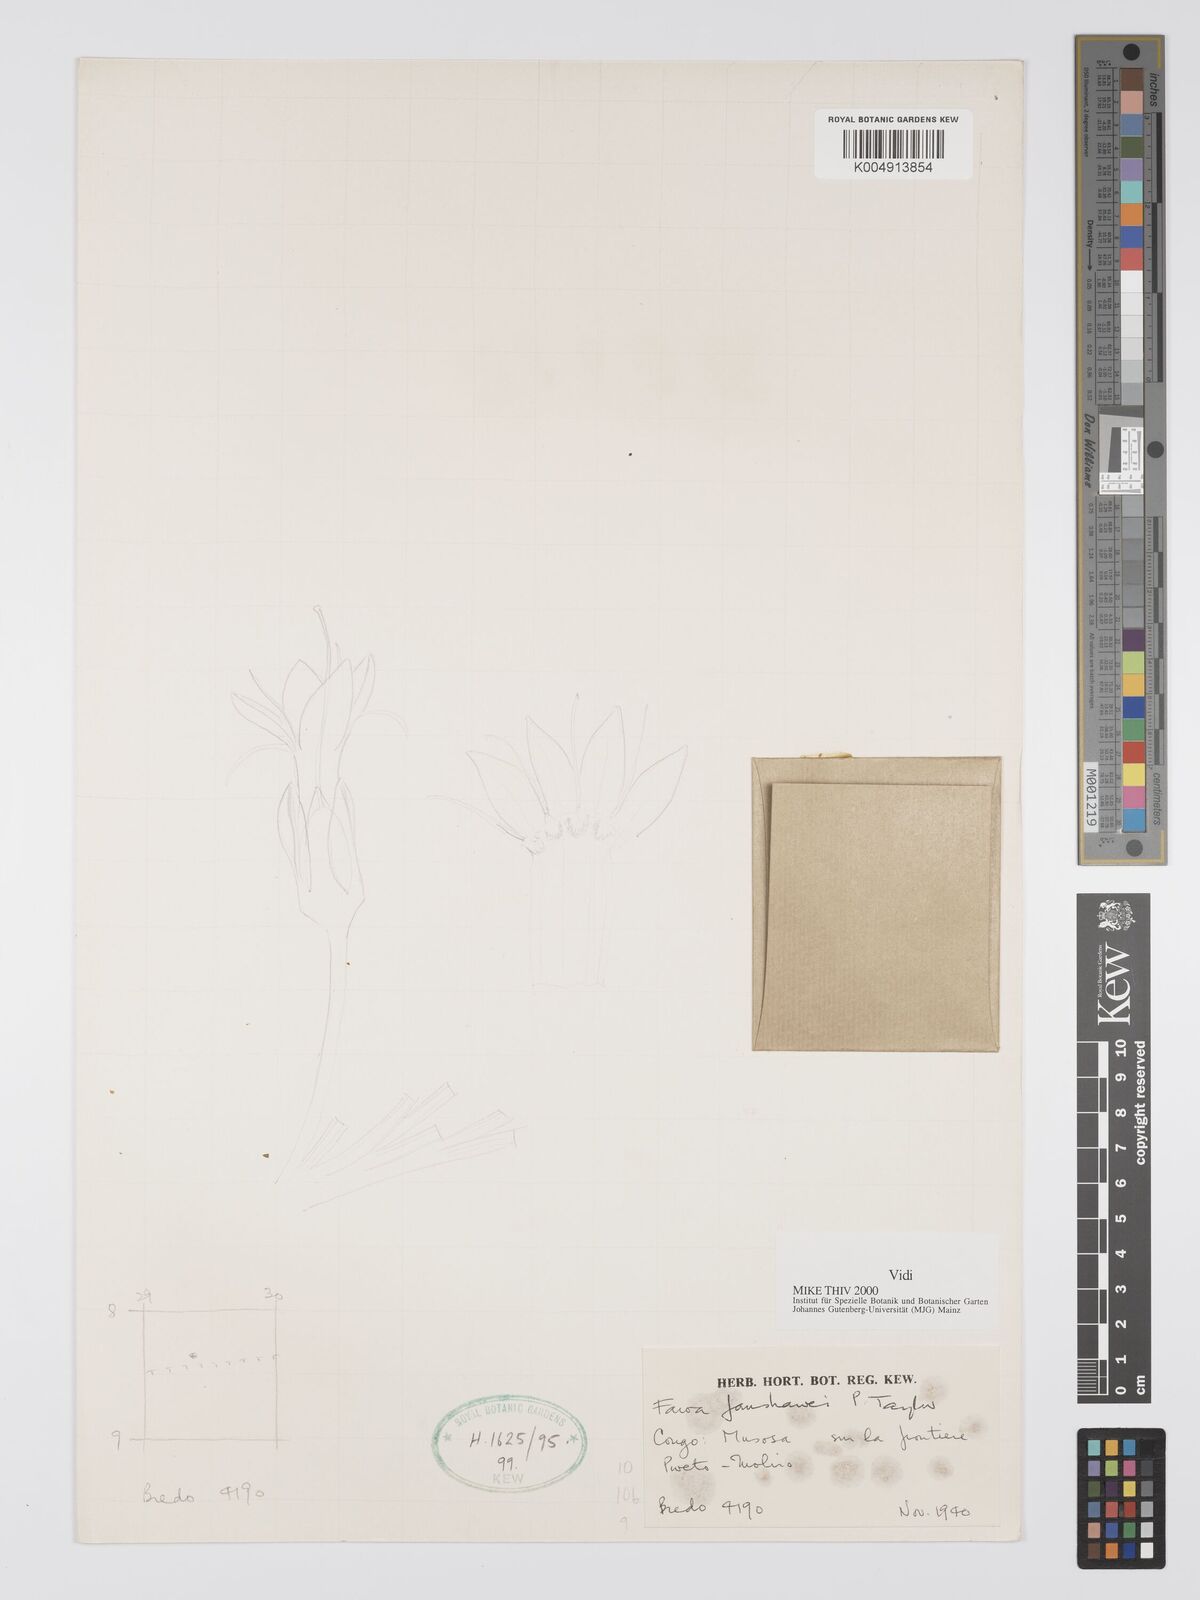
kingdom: Plantae
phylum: Tracheophyta
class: Magnoliopsida
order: Gentianales
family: Gentianaceae
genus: Faroa
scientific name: Faroa fanshawei
